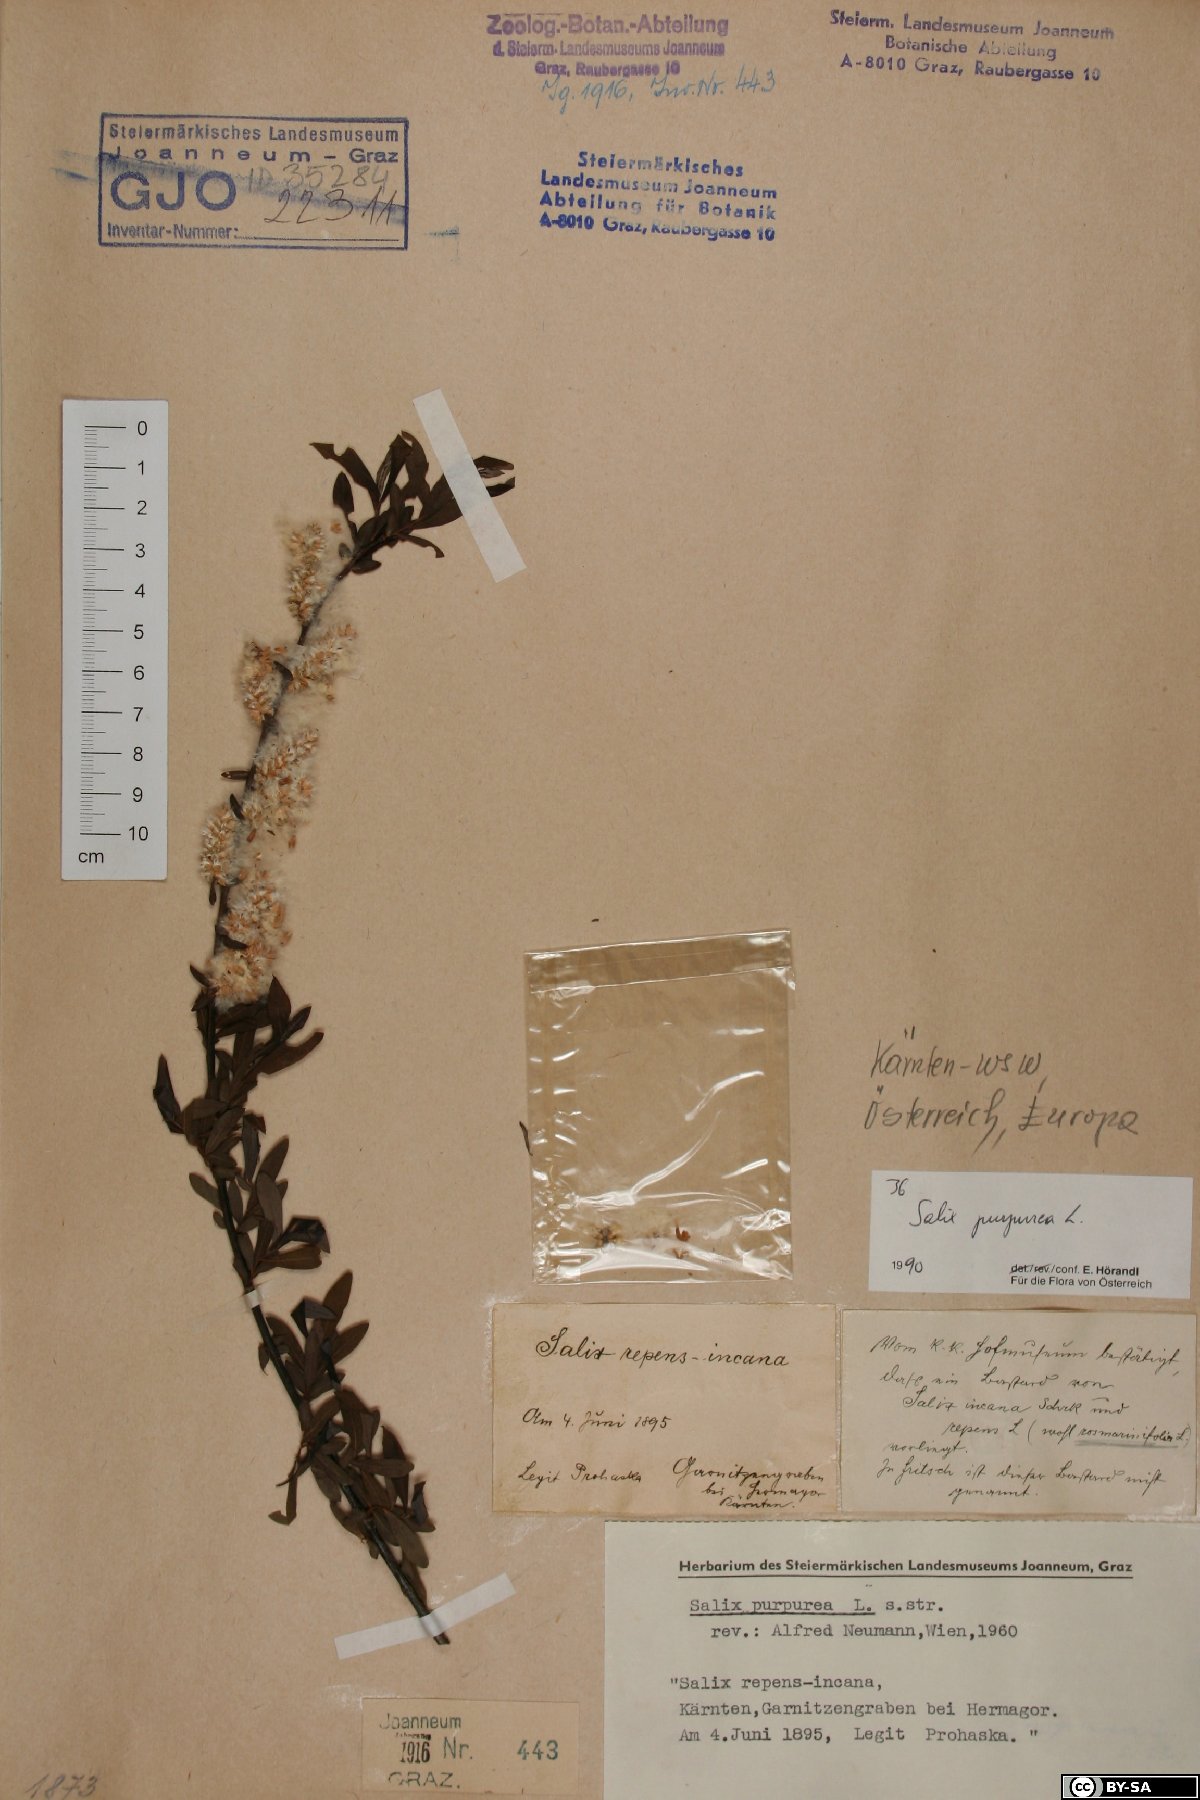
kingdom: Plantae
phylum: Tracheophyta
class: Magnoliopsida
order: Malpighiales
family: Salicaceae
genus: Salix
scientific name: Salix purpurea
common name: Purple willow
